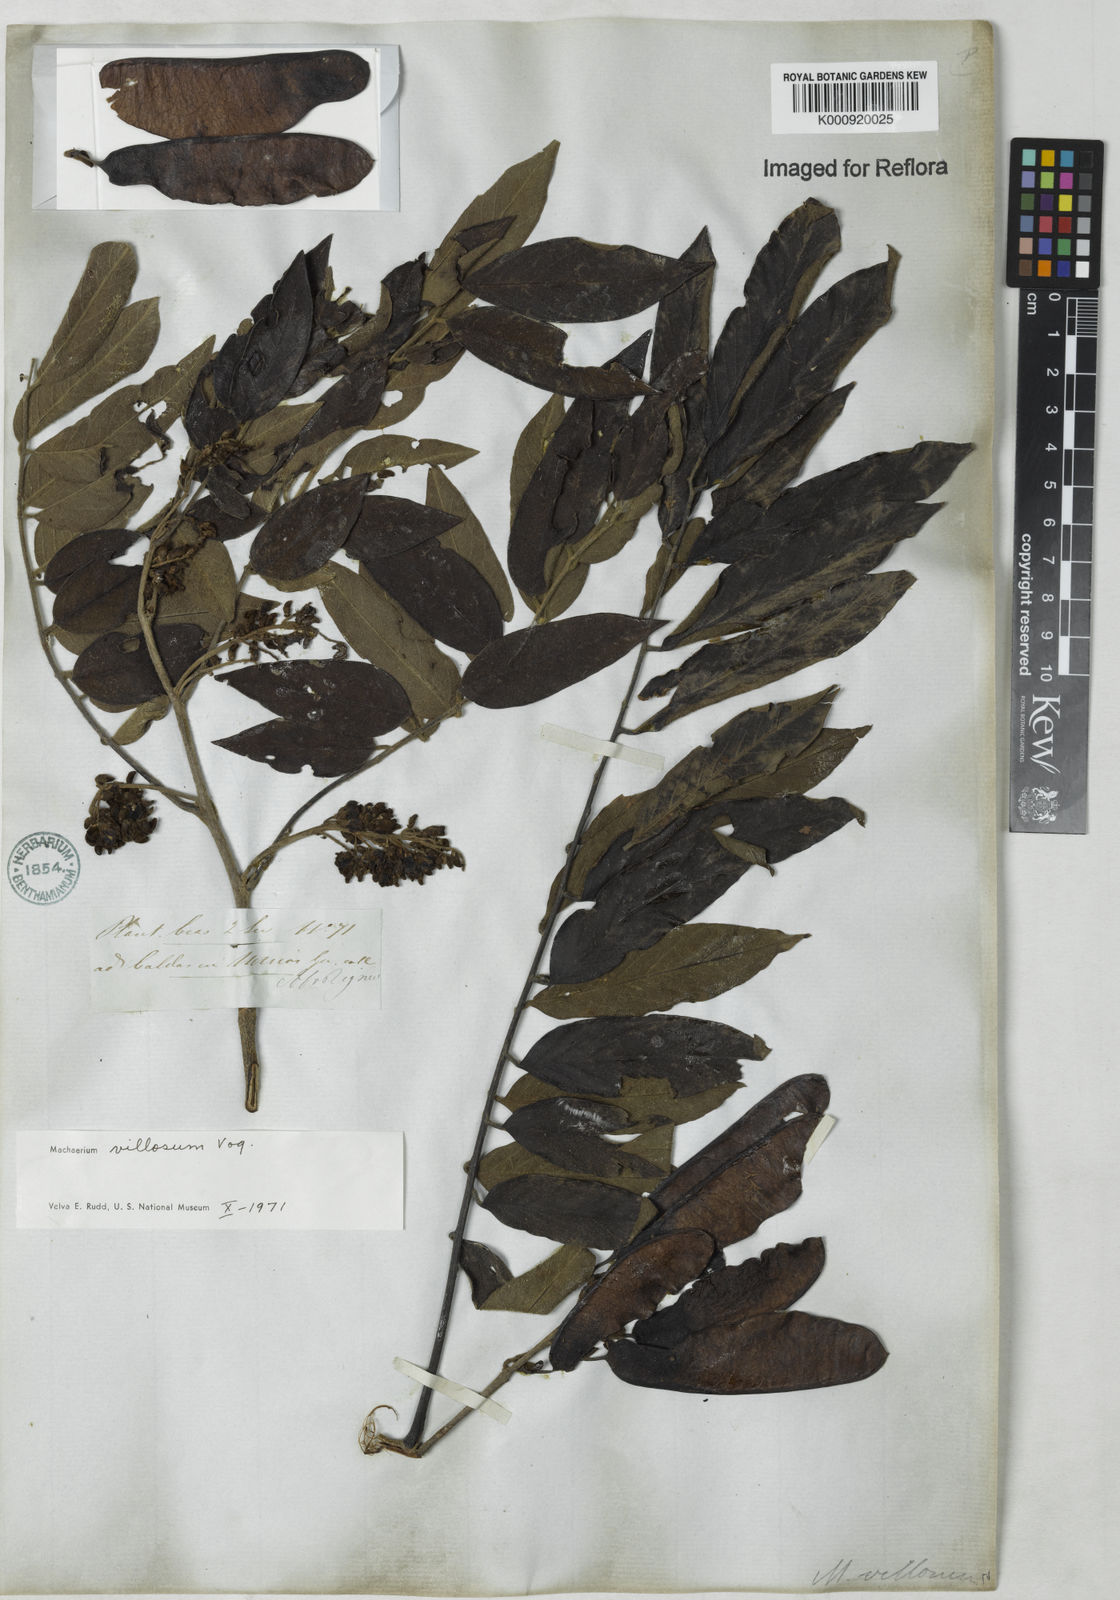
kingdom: Plantae
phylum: Tracheophyta
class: Magnoliopsida
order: Fabales
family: Fabaceae
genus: Machaerium
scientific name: Machaerium villosum
